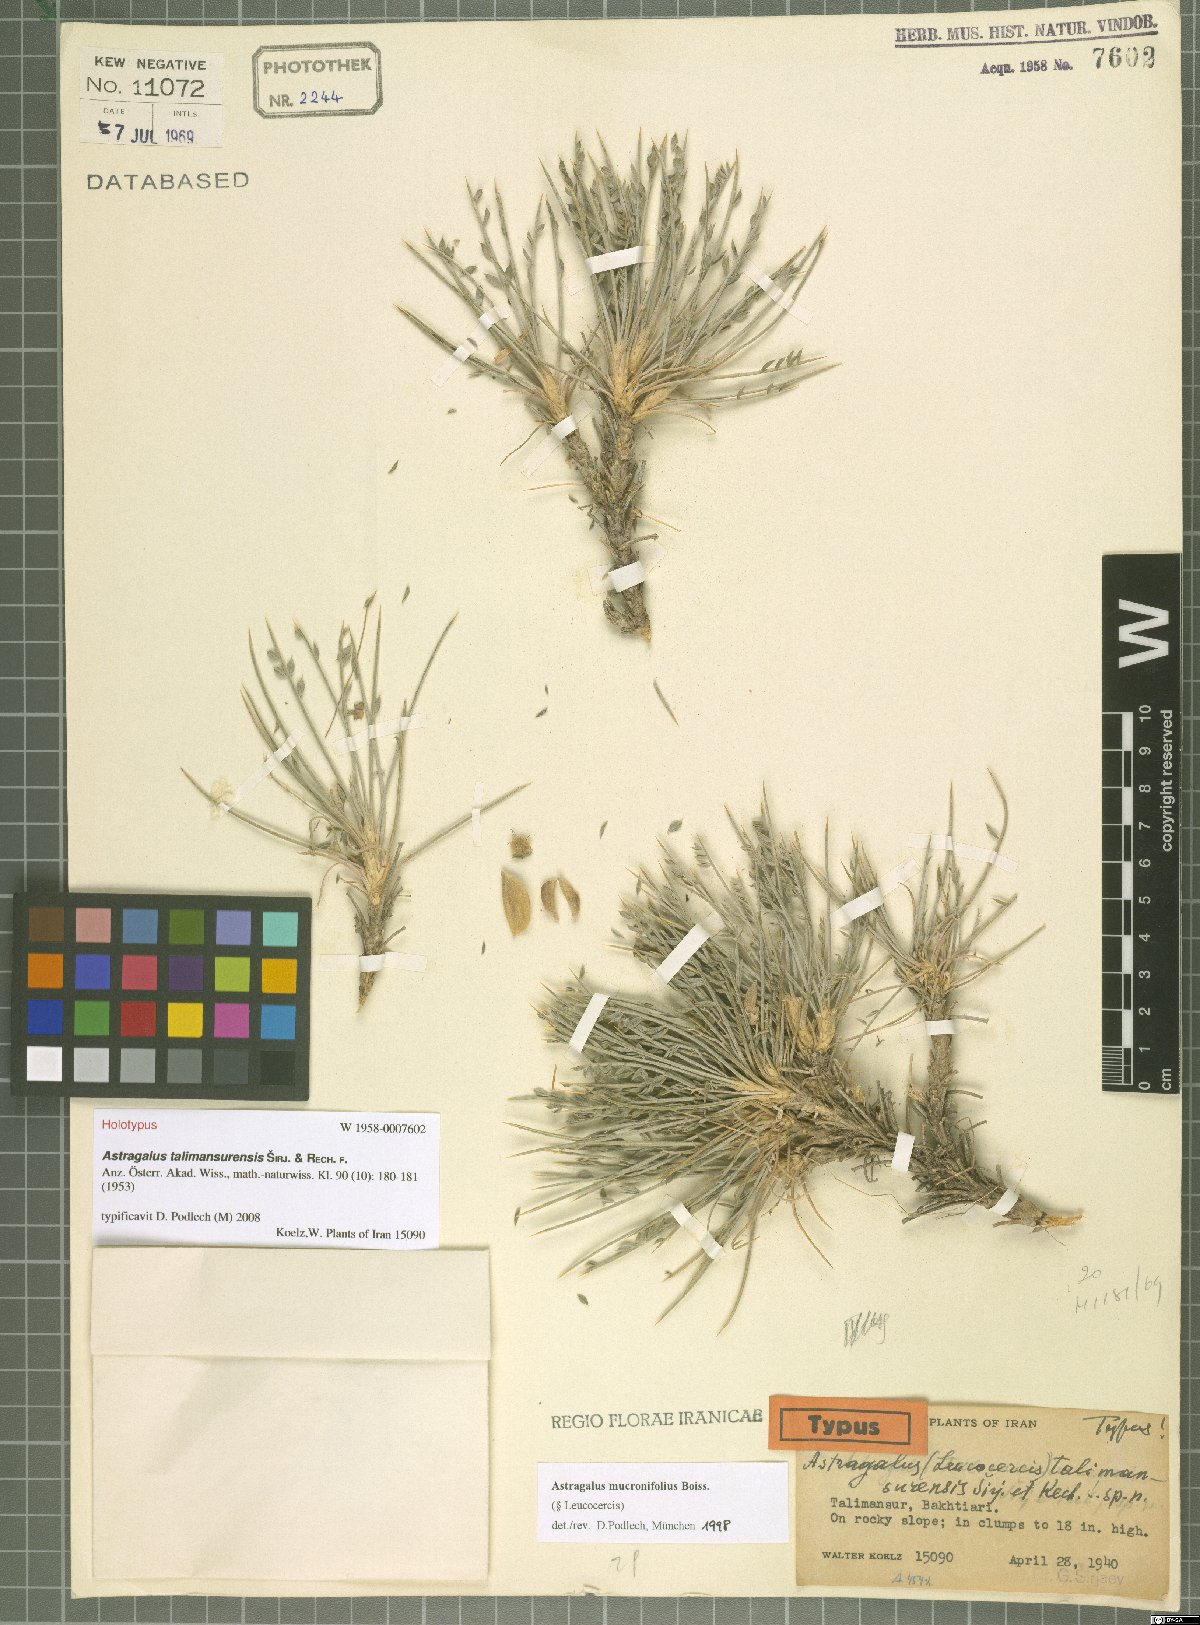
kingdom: Plantae
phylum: Tracheophyta
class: Magnoliopsida
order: Fabales
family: Fabaceae
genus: Astragalus
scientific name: Astragalus talimansurensis
